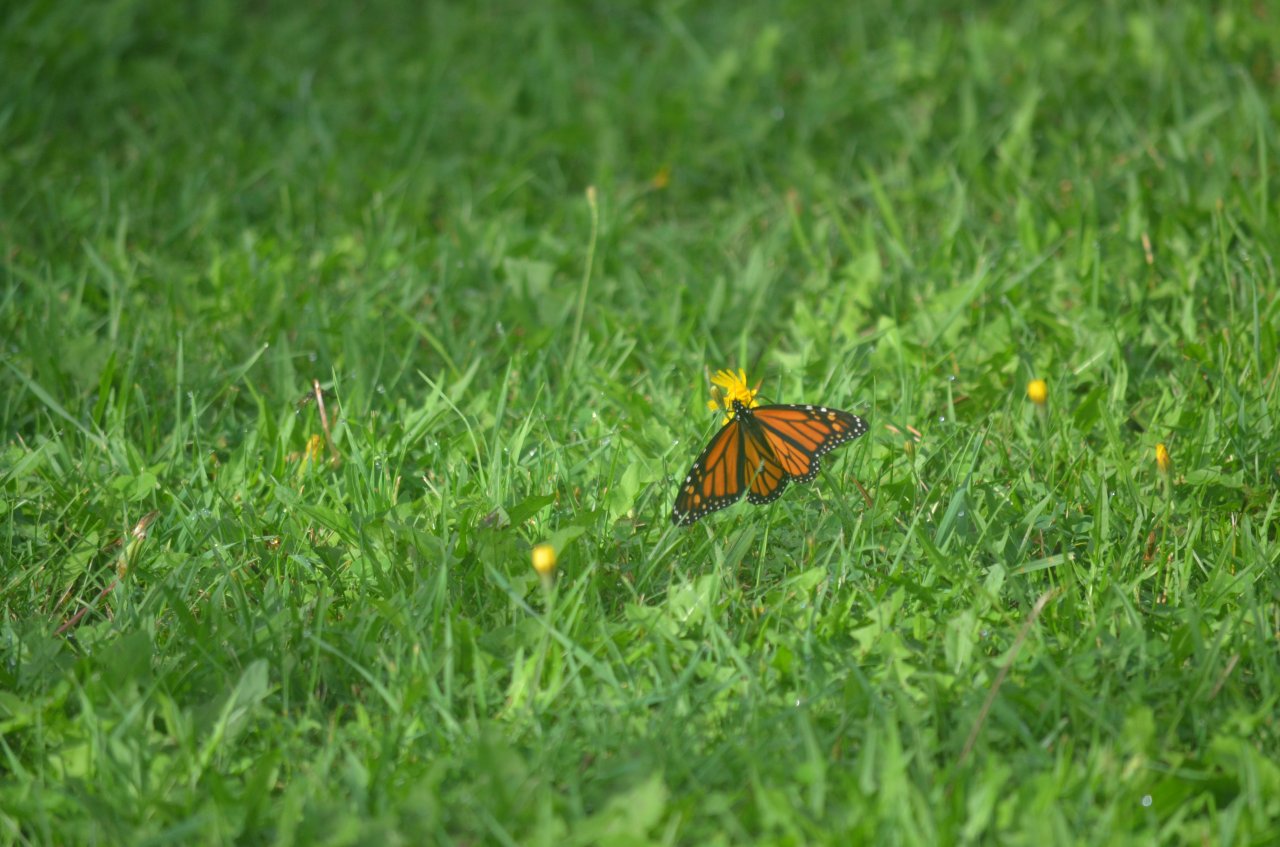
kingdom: Animalia
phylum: Arthropoda
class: Insecta
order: Lepidoptera
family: Nymphalidae
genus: Danaus
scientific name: Danaus plexippus
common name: Monarch
